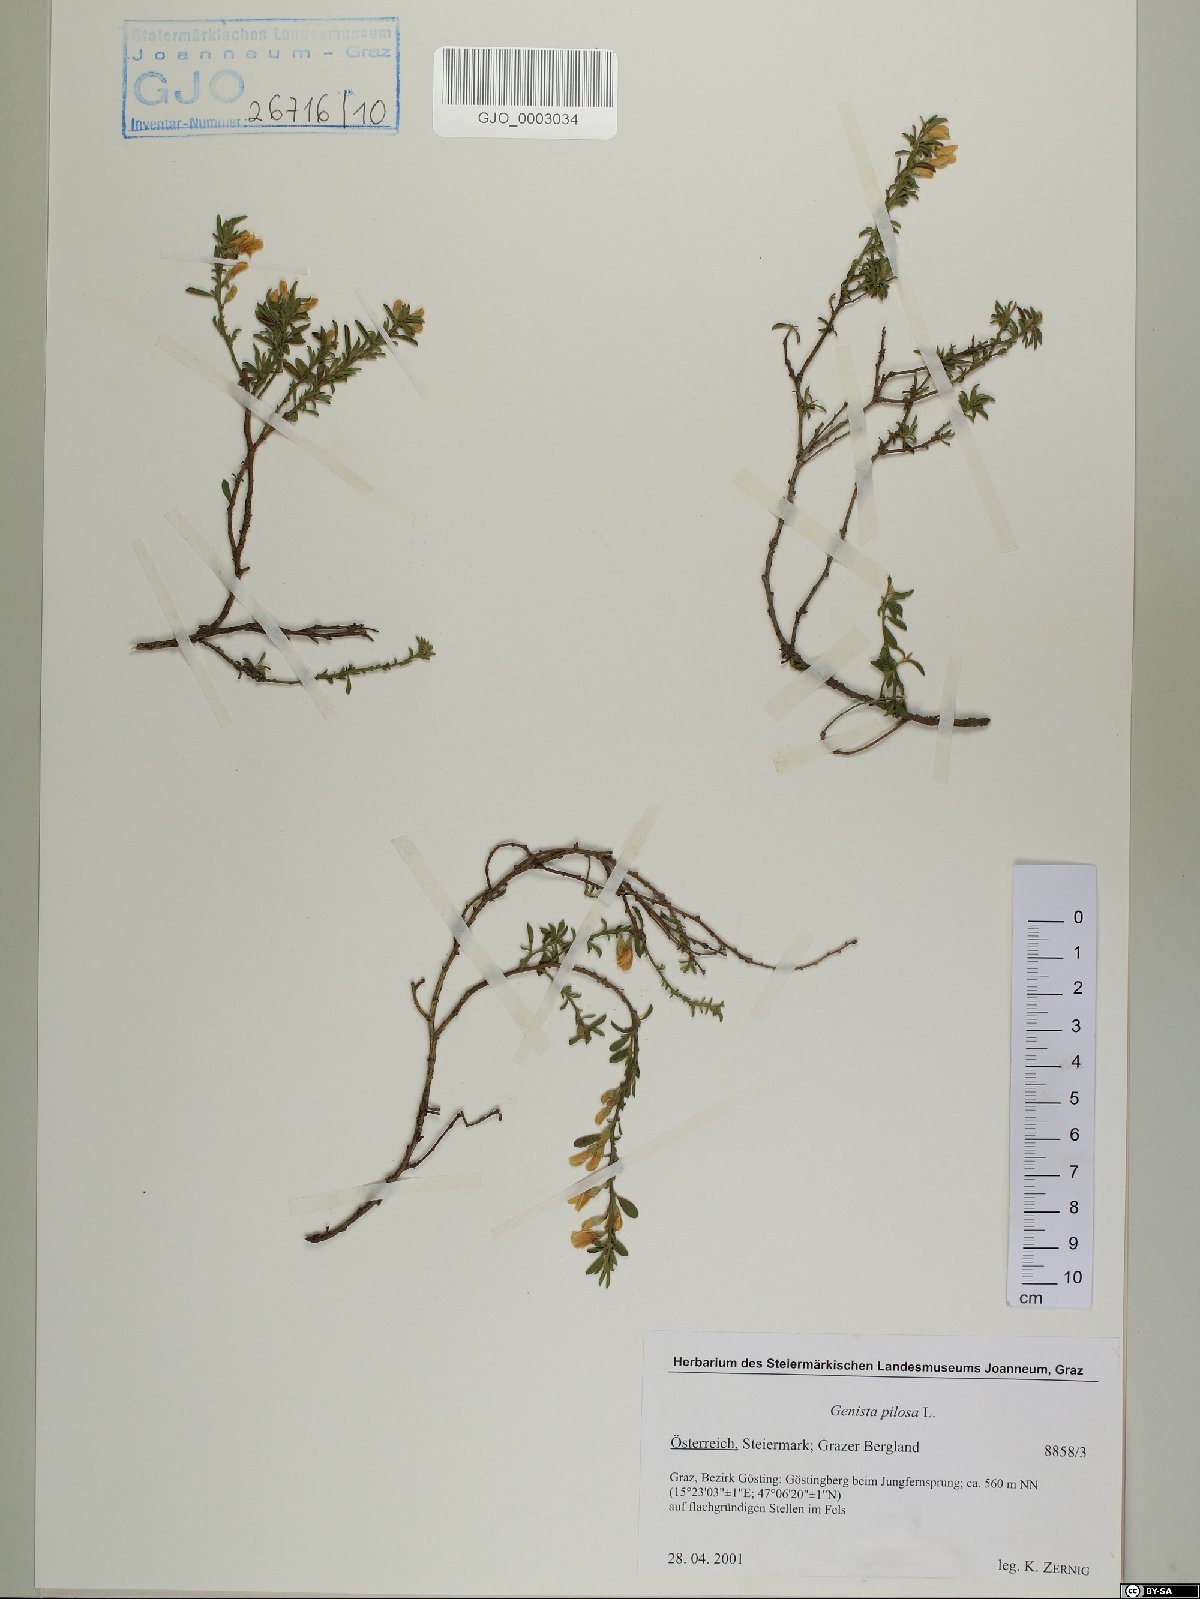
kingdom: Plantae
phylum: Tracheophyta
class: Magnoliopsida
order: Fabales
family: Fabaceae
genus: Genista
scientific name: Genista pilosa
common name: Hairy greenweed
